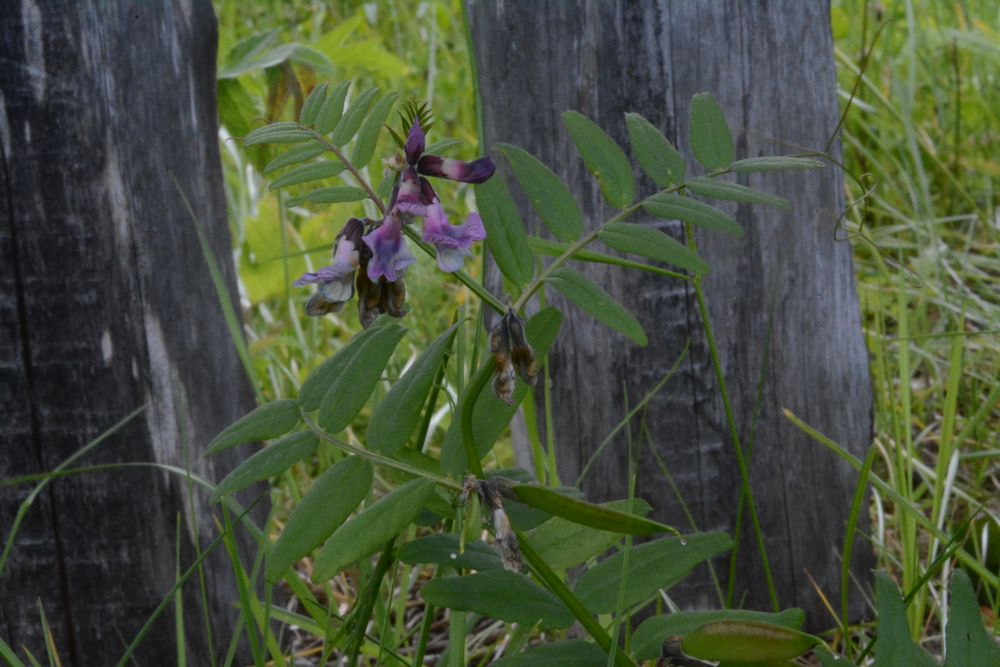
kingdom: Plantae
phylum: Tracheophyta
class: Magnoliopsida
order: Fabales
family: Fabaceae
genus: Vicia
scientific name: Vicia sepium
